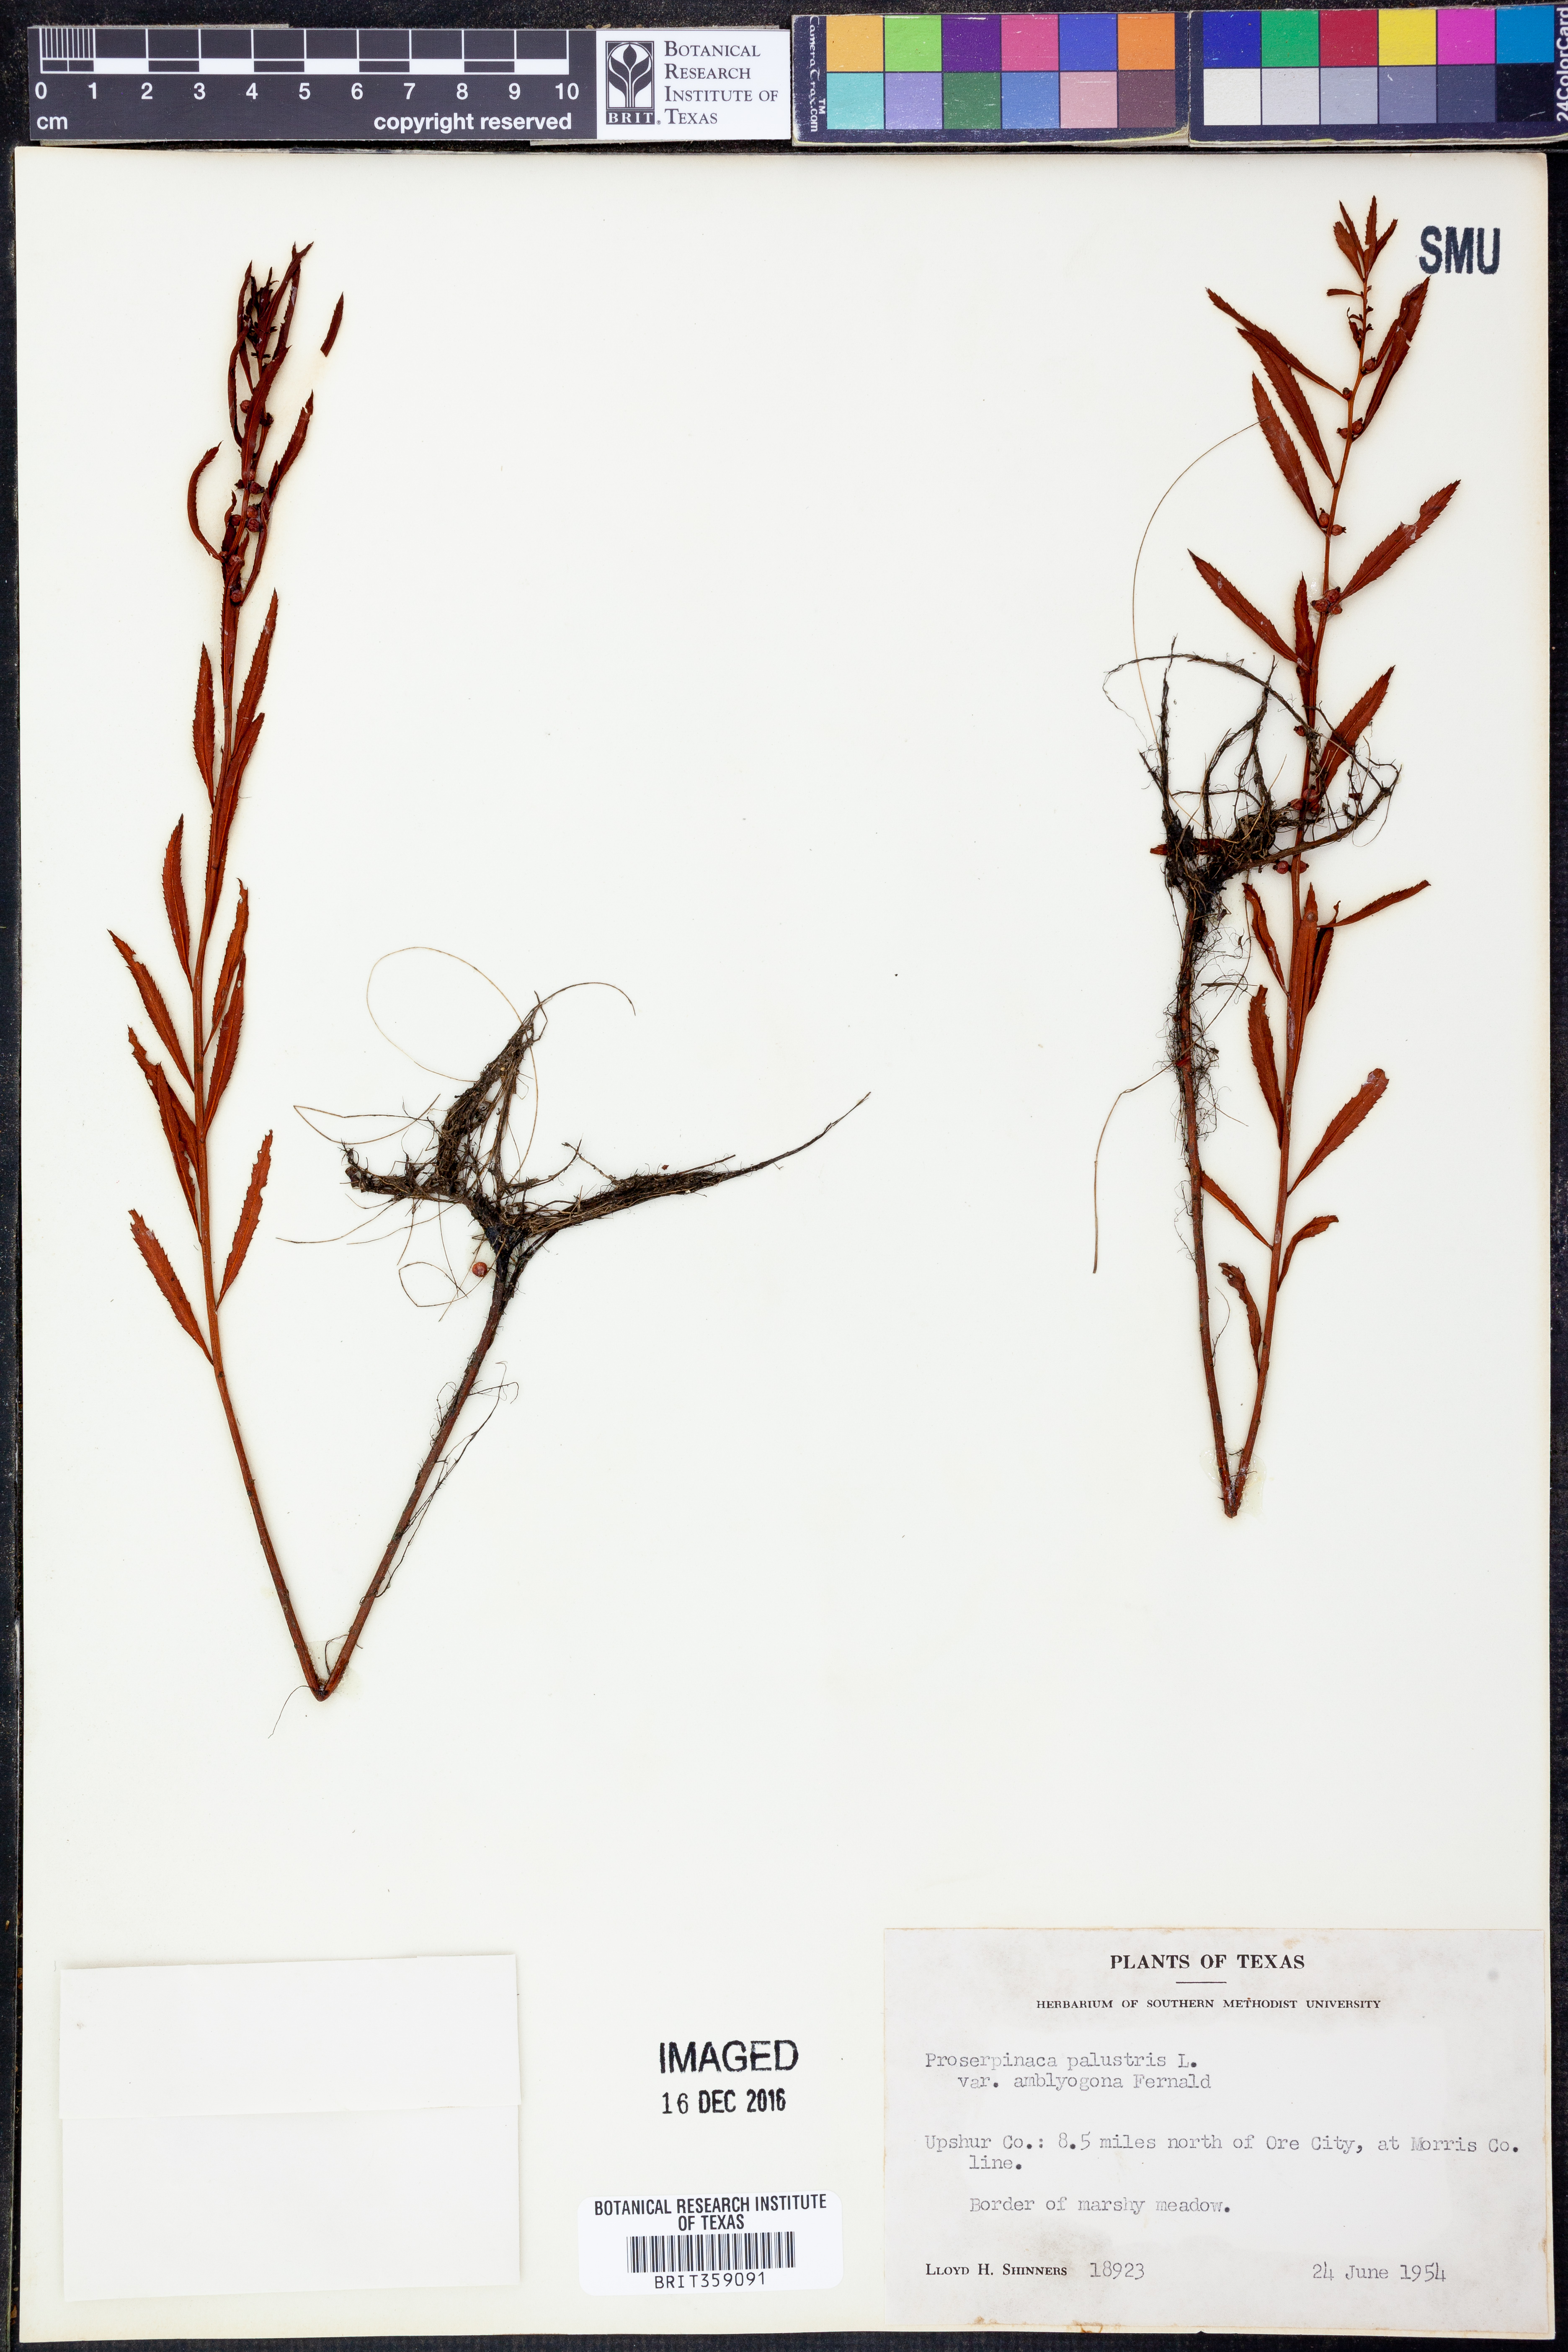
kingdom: Plantae
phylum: Tracheophyta
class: Magnoliopsida
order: Saxifragales
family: Haloragaceae
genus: Proserpinaca
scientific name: Proserpinaca palustris
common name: Marsh mermaidweed
